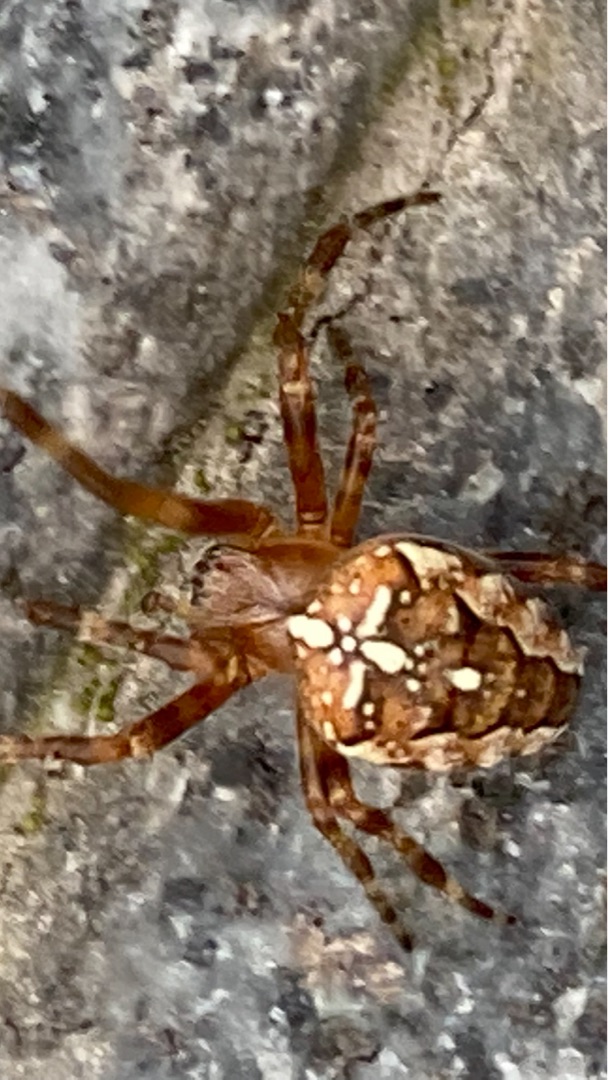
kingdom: Animalia
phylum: Arthropoda
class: Arachnida
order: Araneae
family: Araneidae
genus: Araneus
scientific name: Araneus diadematus
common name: Korsedderkop
